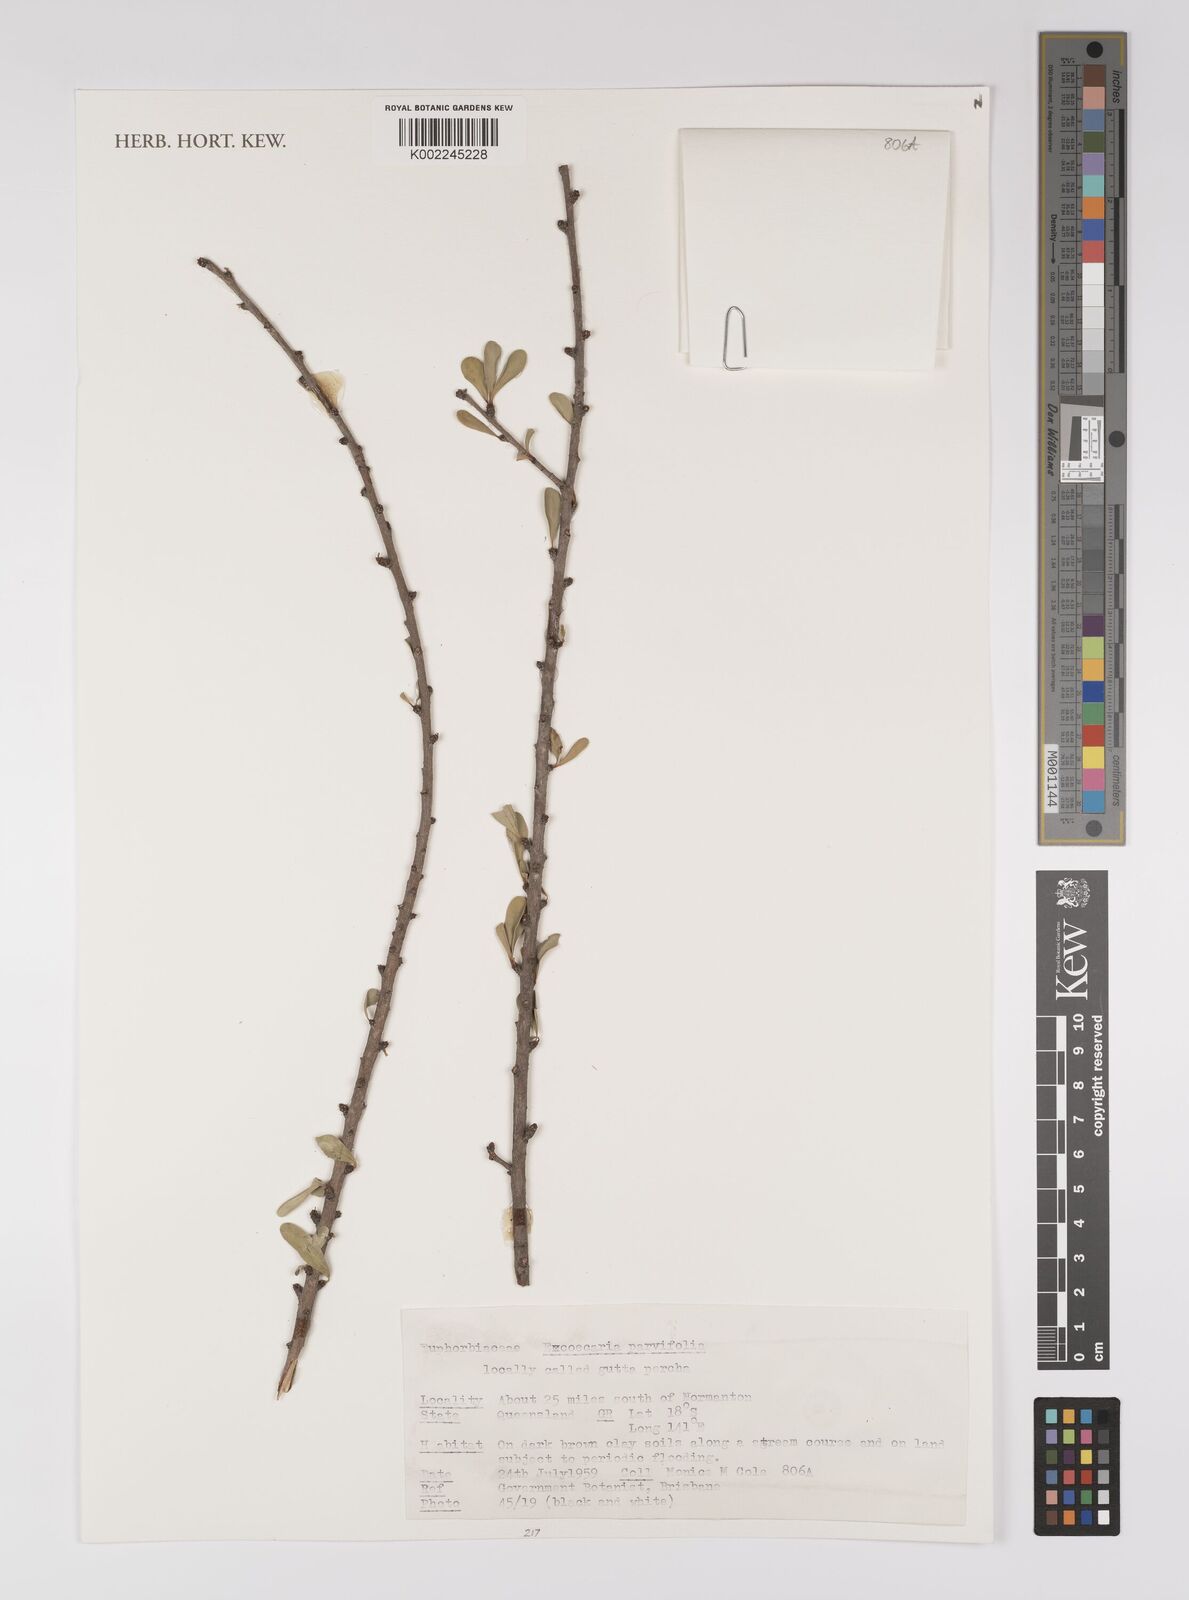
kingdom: Plantae
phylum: Tracheophyta
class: Magnoliopsida
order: Malpighiales
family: Euphorbiaceae
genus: Excoecaria
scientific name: Excoecaria parvifolia
